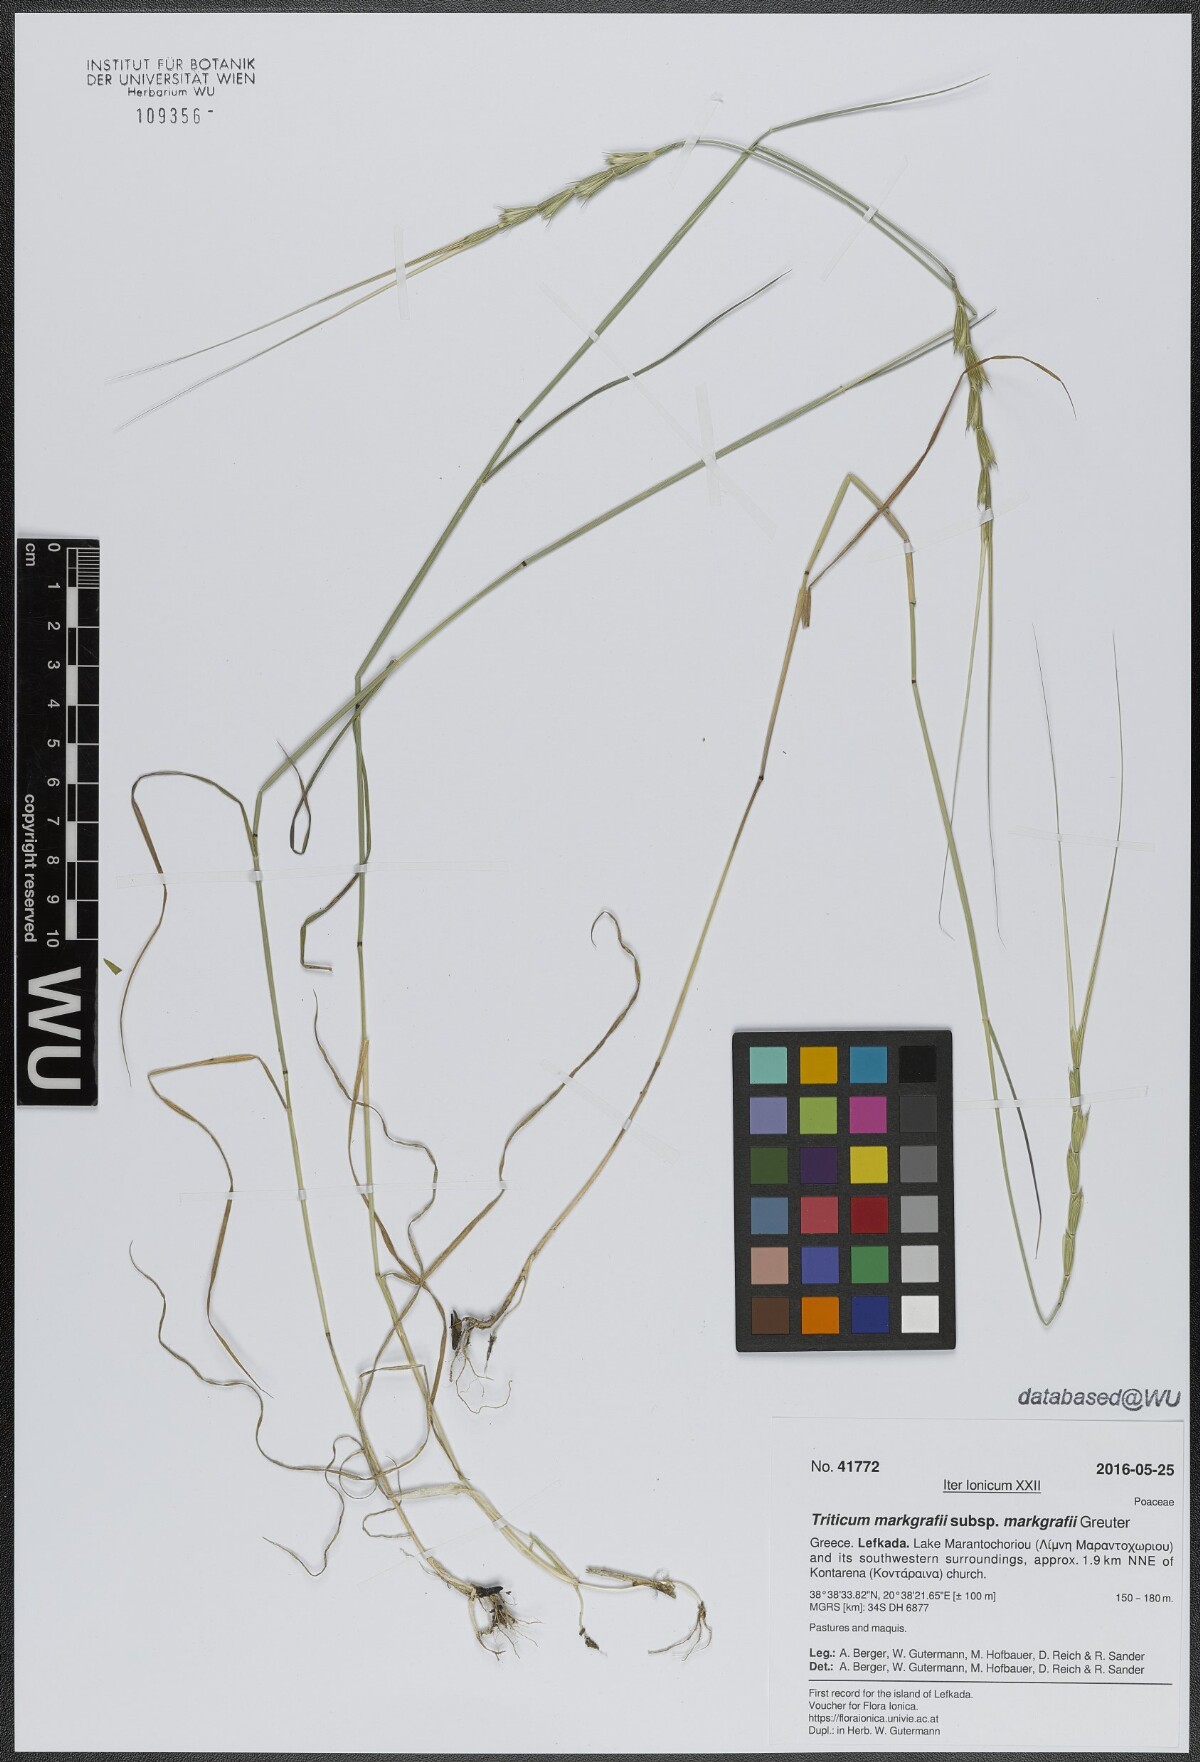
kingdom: Plantae
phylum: Tracheophyta
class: Liliopsida
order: Poales
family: Poaceae
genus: Aegilops
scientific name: Aegilops caudata
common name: Cretan hard-grass
